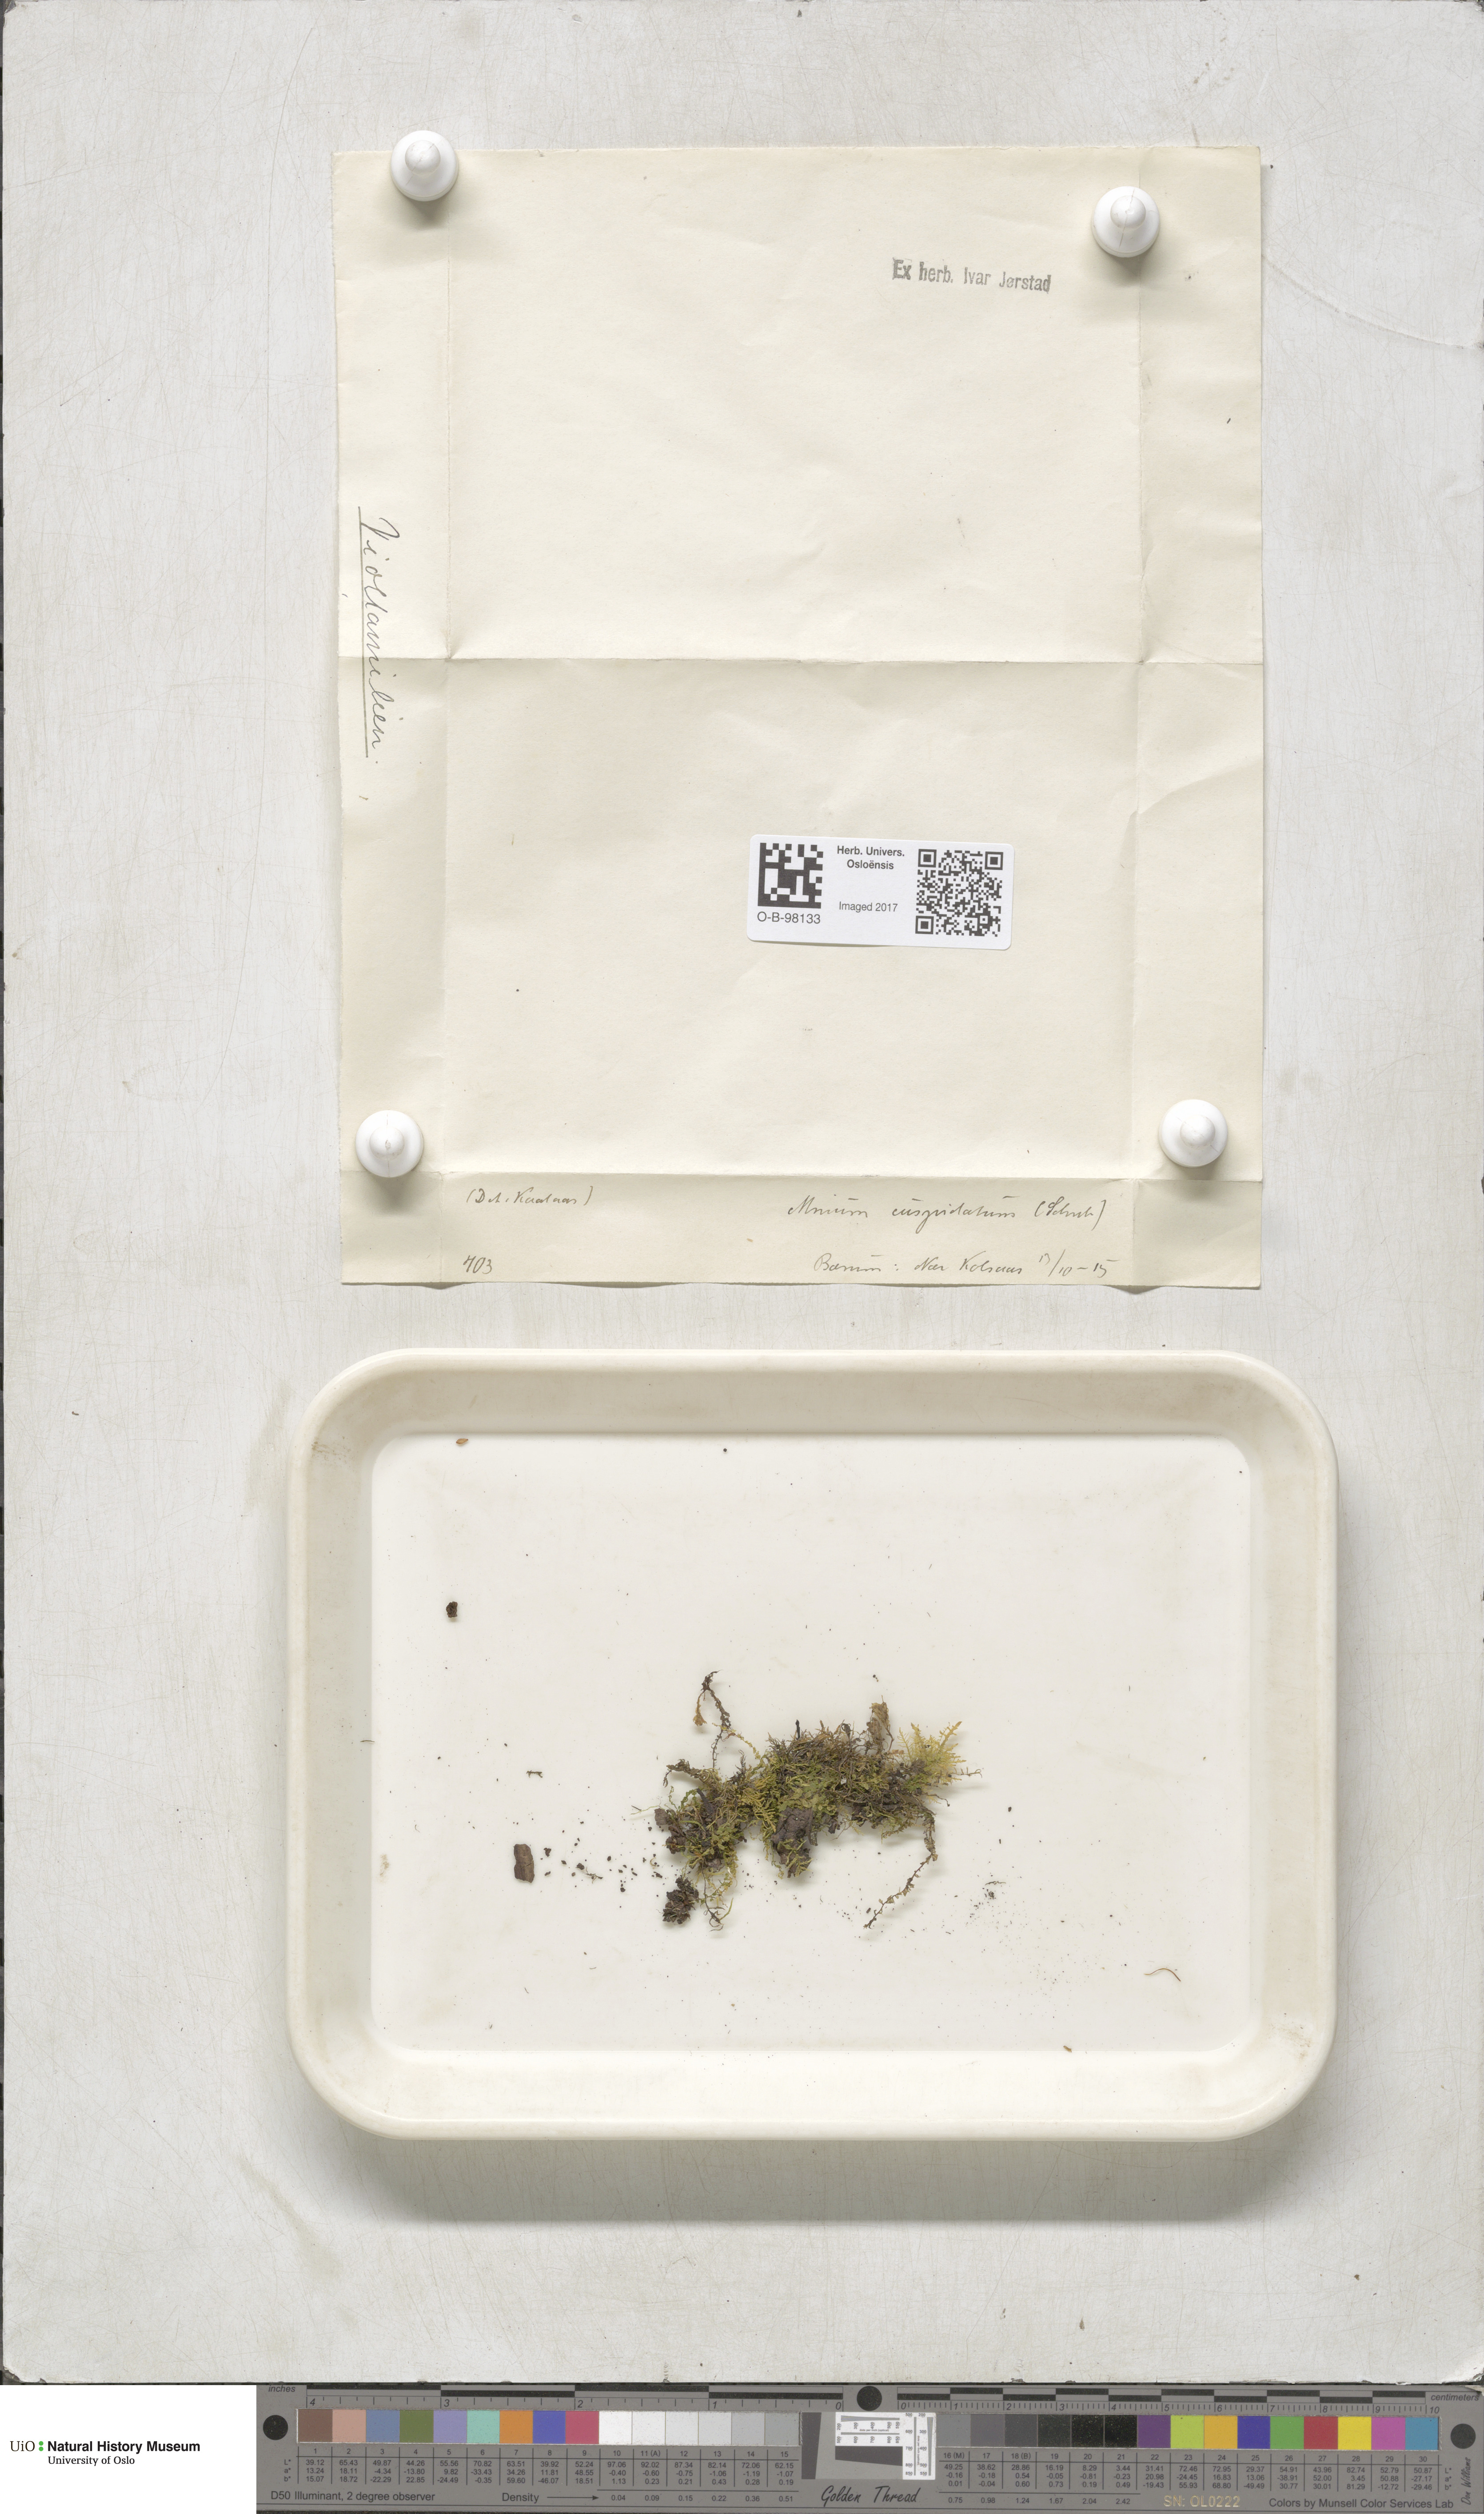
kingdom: Plantae
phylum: Bryophyta
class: Bryopsida
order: Bryales
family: Mniaceae
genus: Plagiomnium
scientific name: Plagiomnium cuspidatum
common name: Woodsy leafy moss
